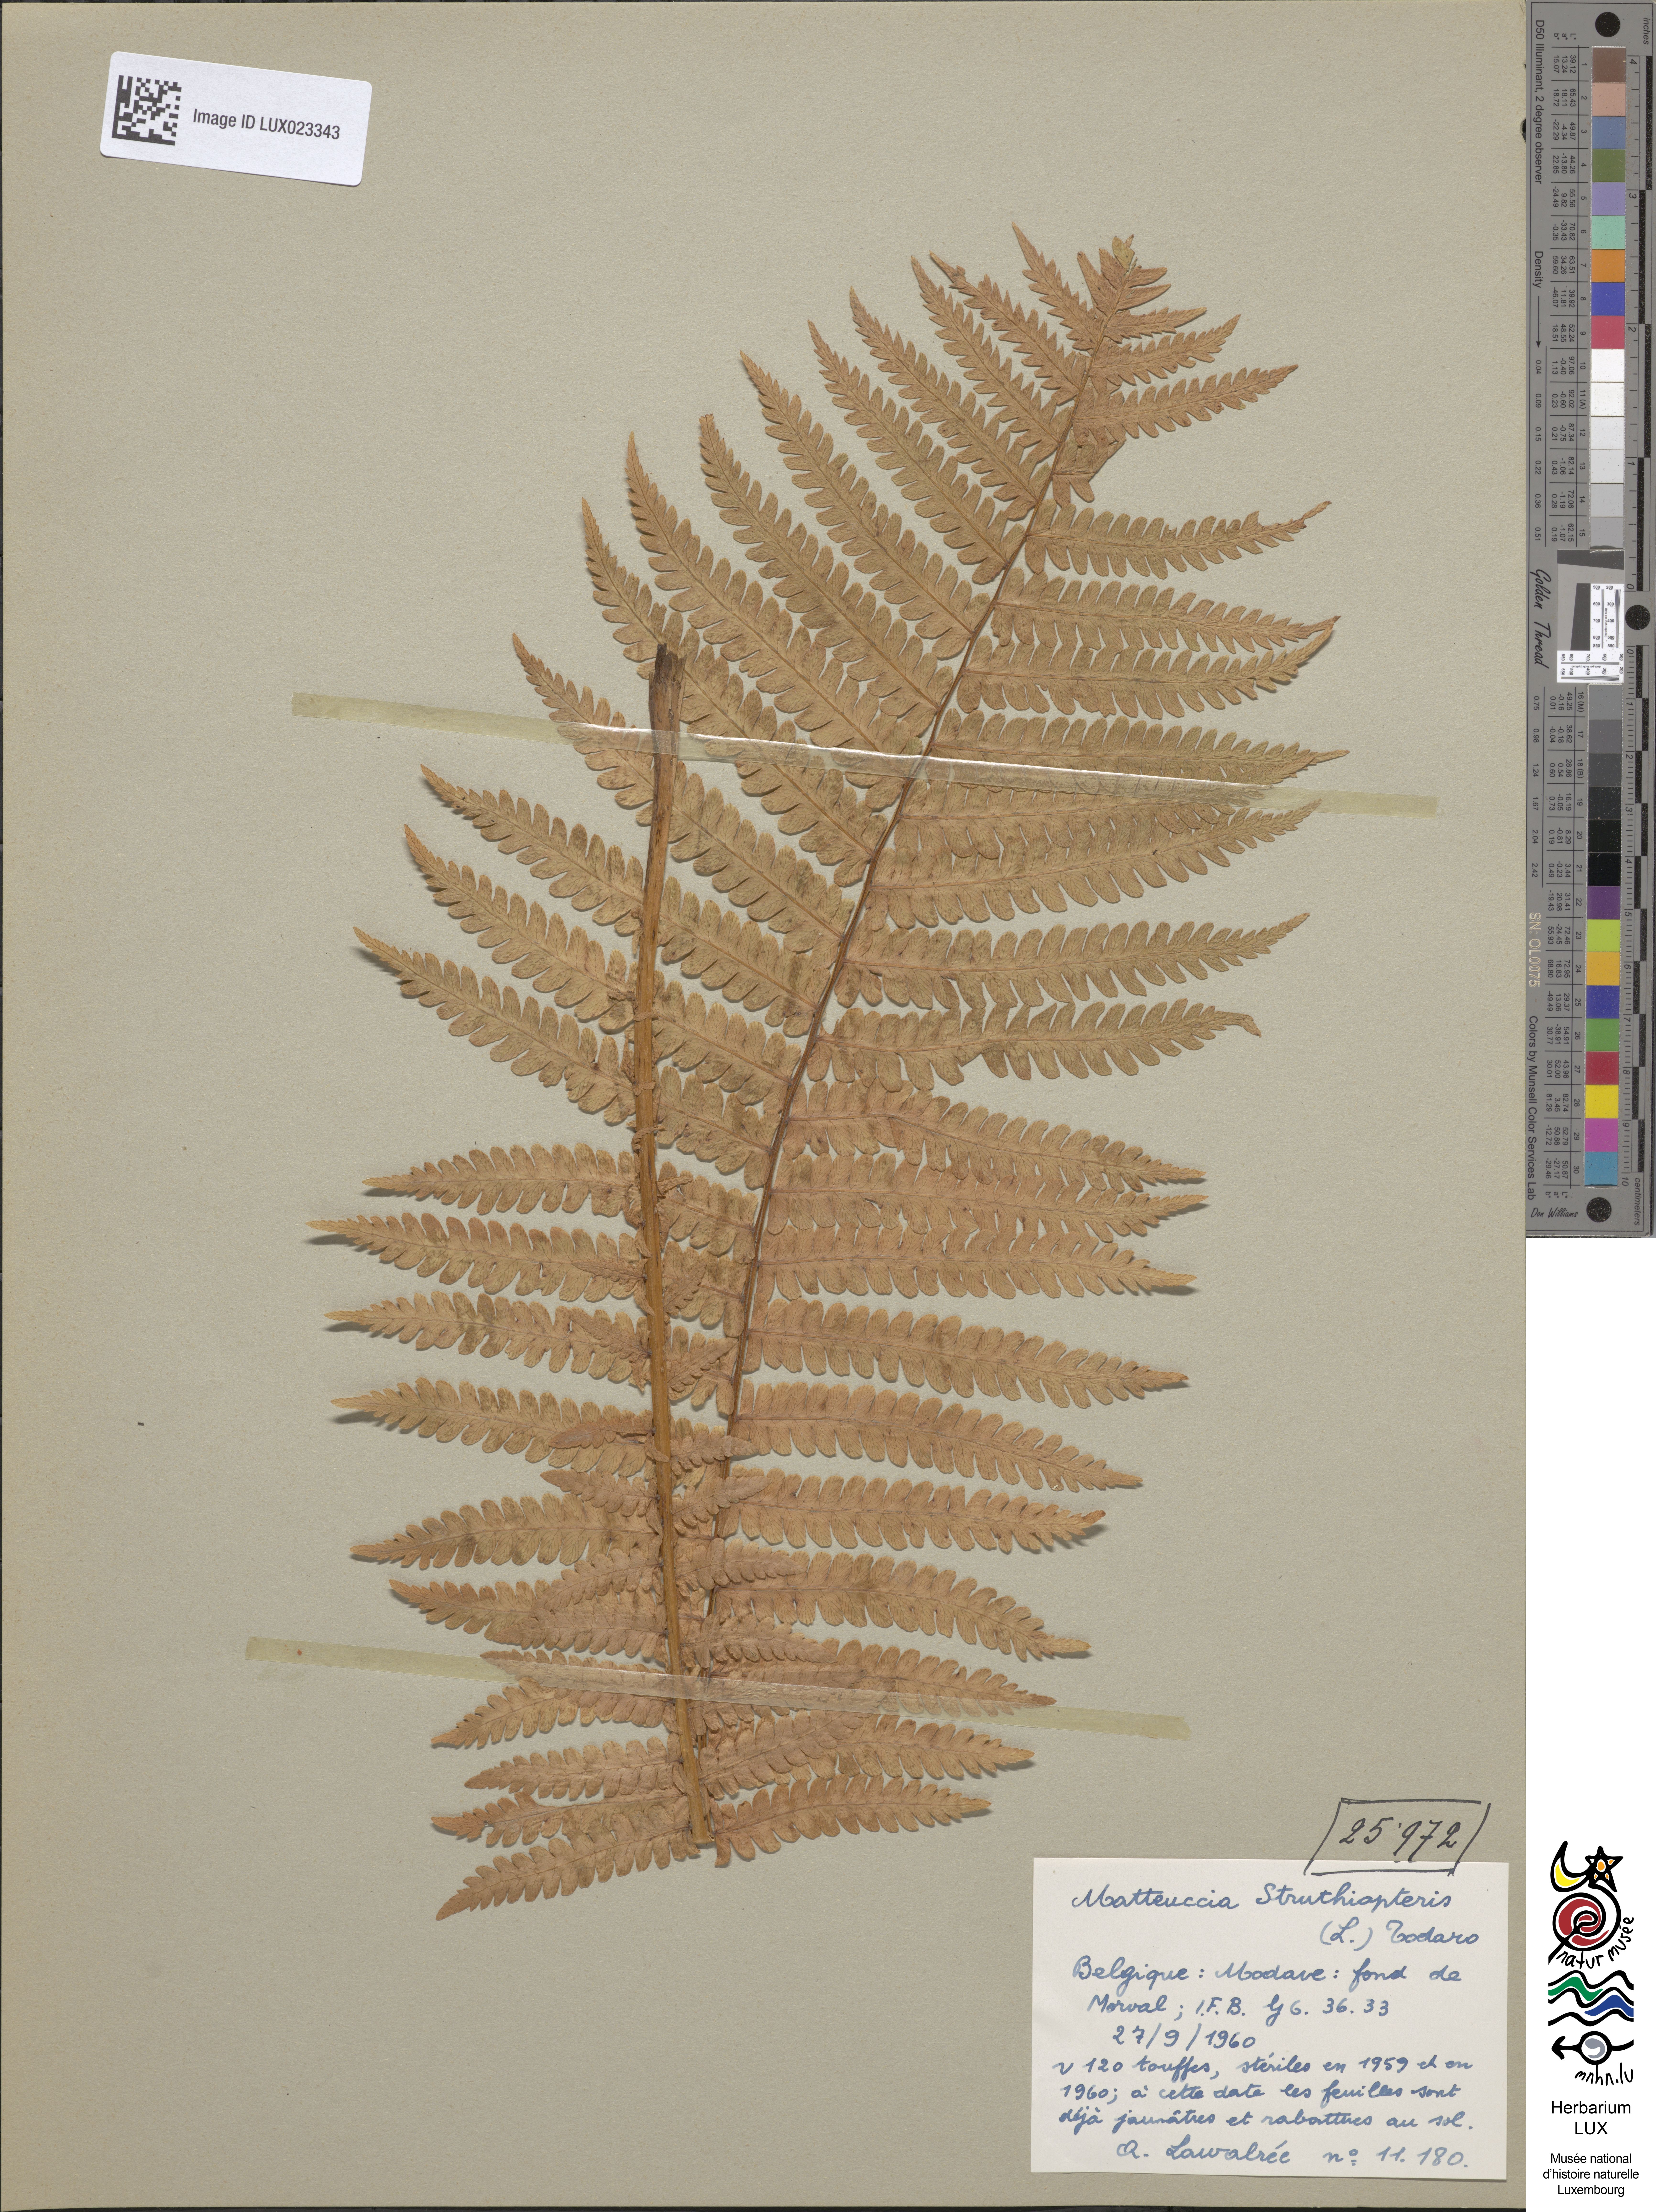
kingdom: Plantae
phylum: Tracheophyta
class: Polypodiopsida
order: Polypodiales
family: Onocleaceae
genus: Matteuccia
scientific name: Matteuccia struthiopteris
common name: Ostrich fern
